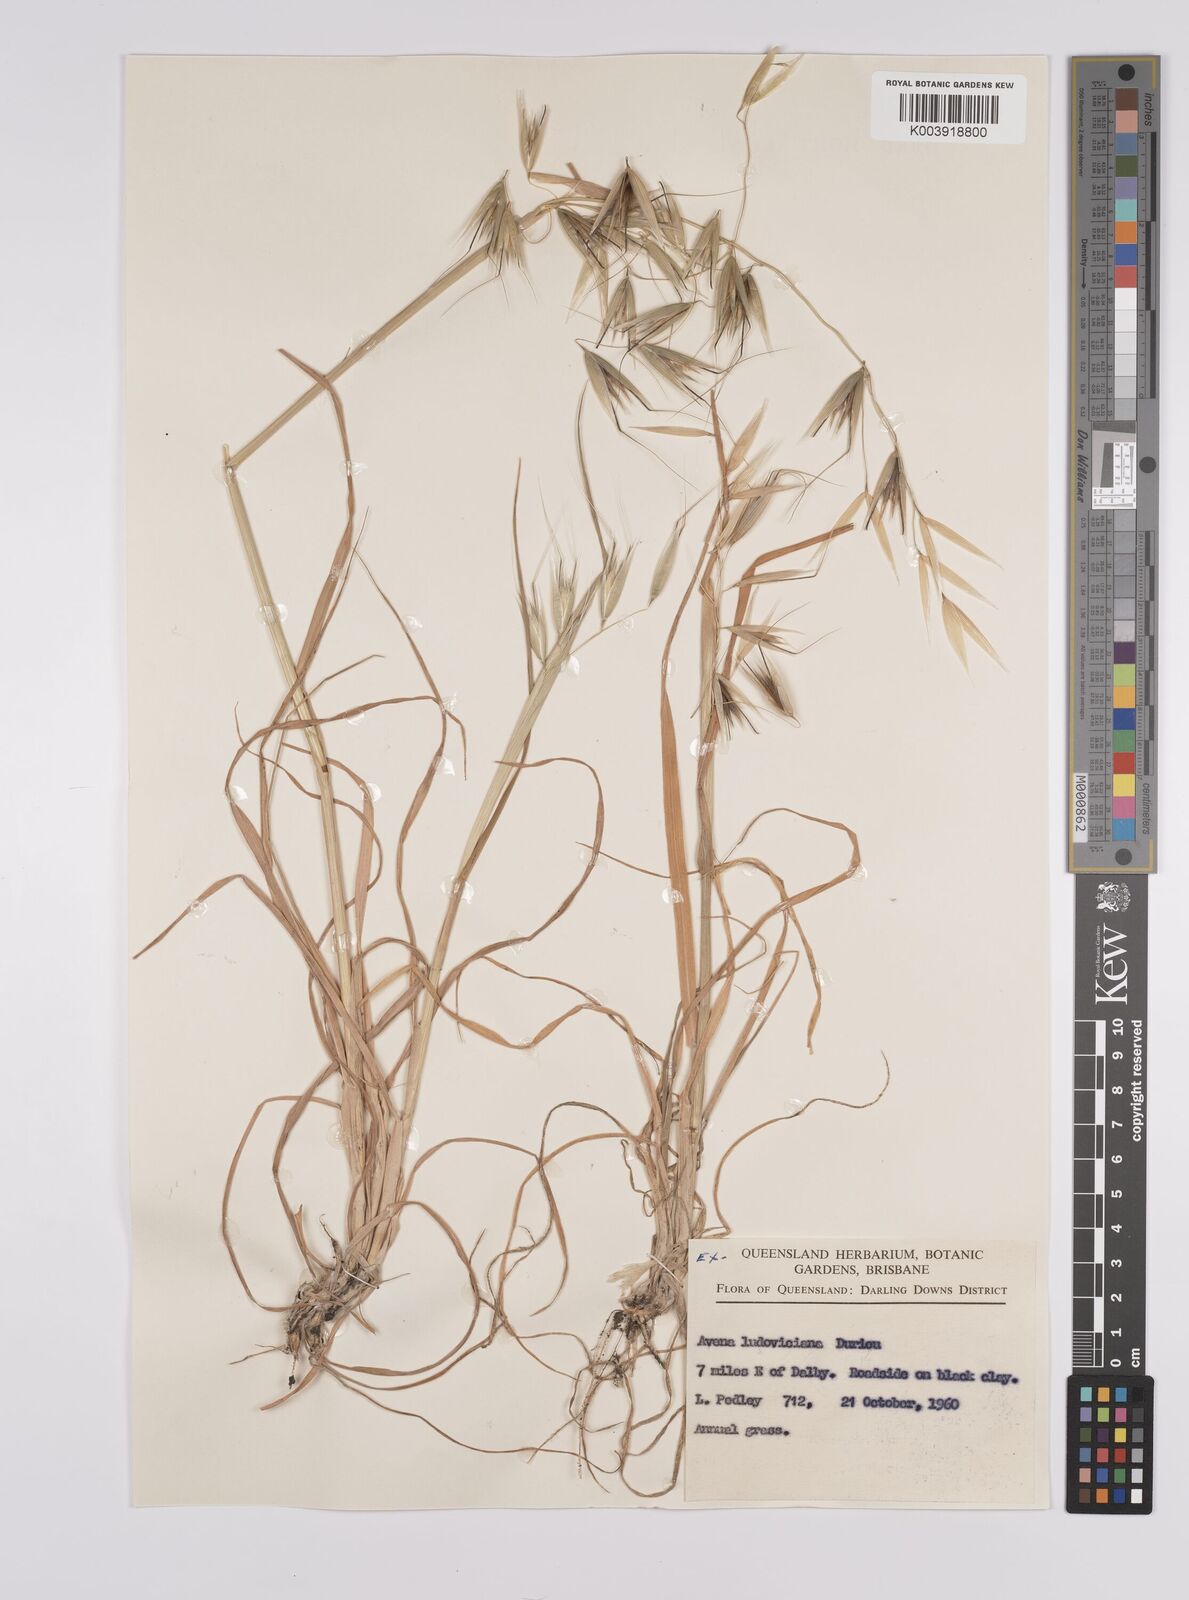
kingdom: Plantae
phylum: Tracheophyta
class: Liliopsida
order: Poales
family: Poaceae
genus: Avena
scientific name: Avena sterilis
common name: Animated oat
